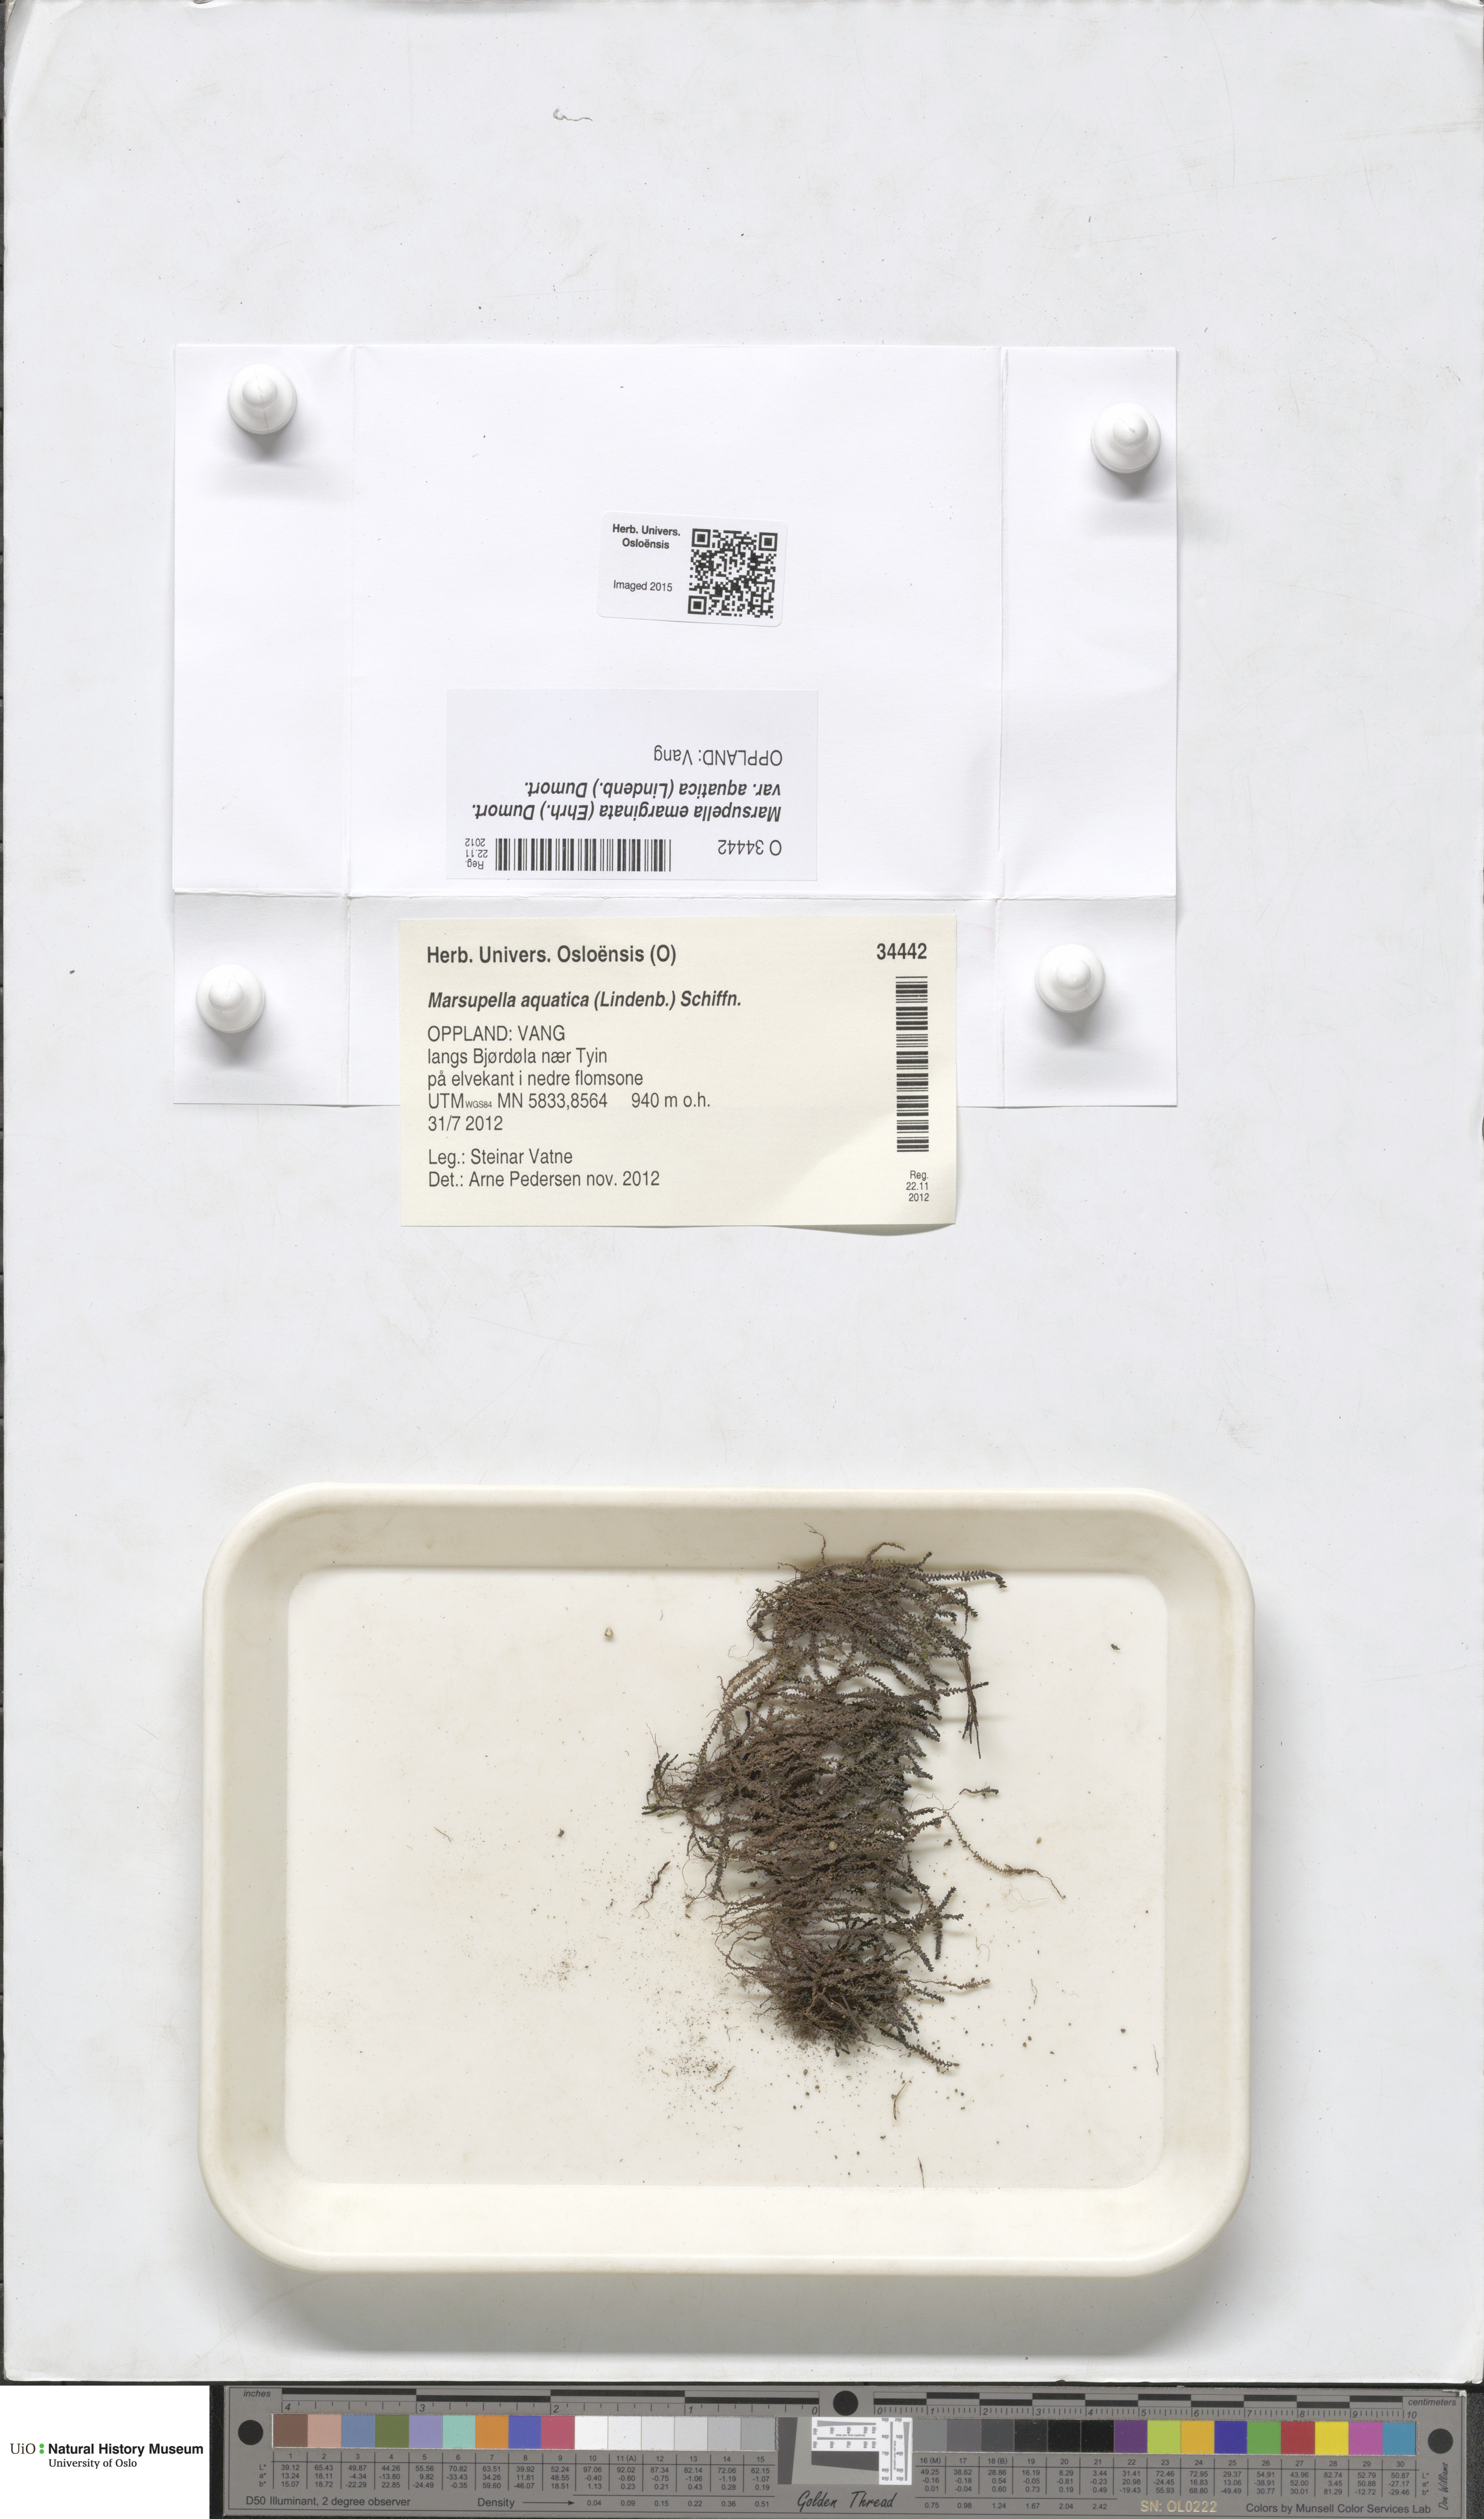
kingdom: Plantae
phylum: Marchantiophyta
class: Jungermanniopsida
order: Jungermanniales
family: Gymnomitriaceae
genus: Marsupella
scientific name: Marsupella aquatica
